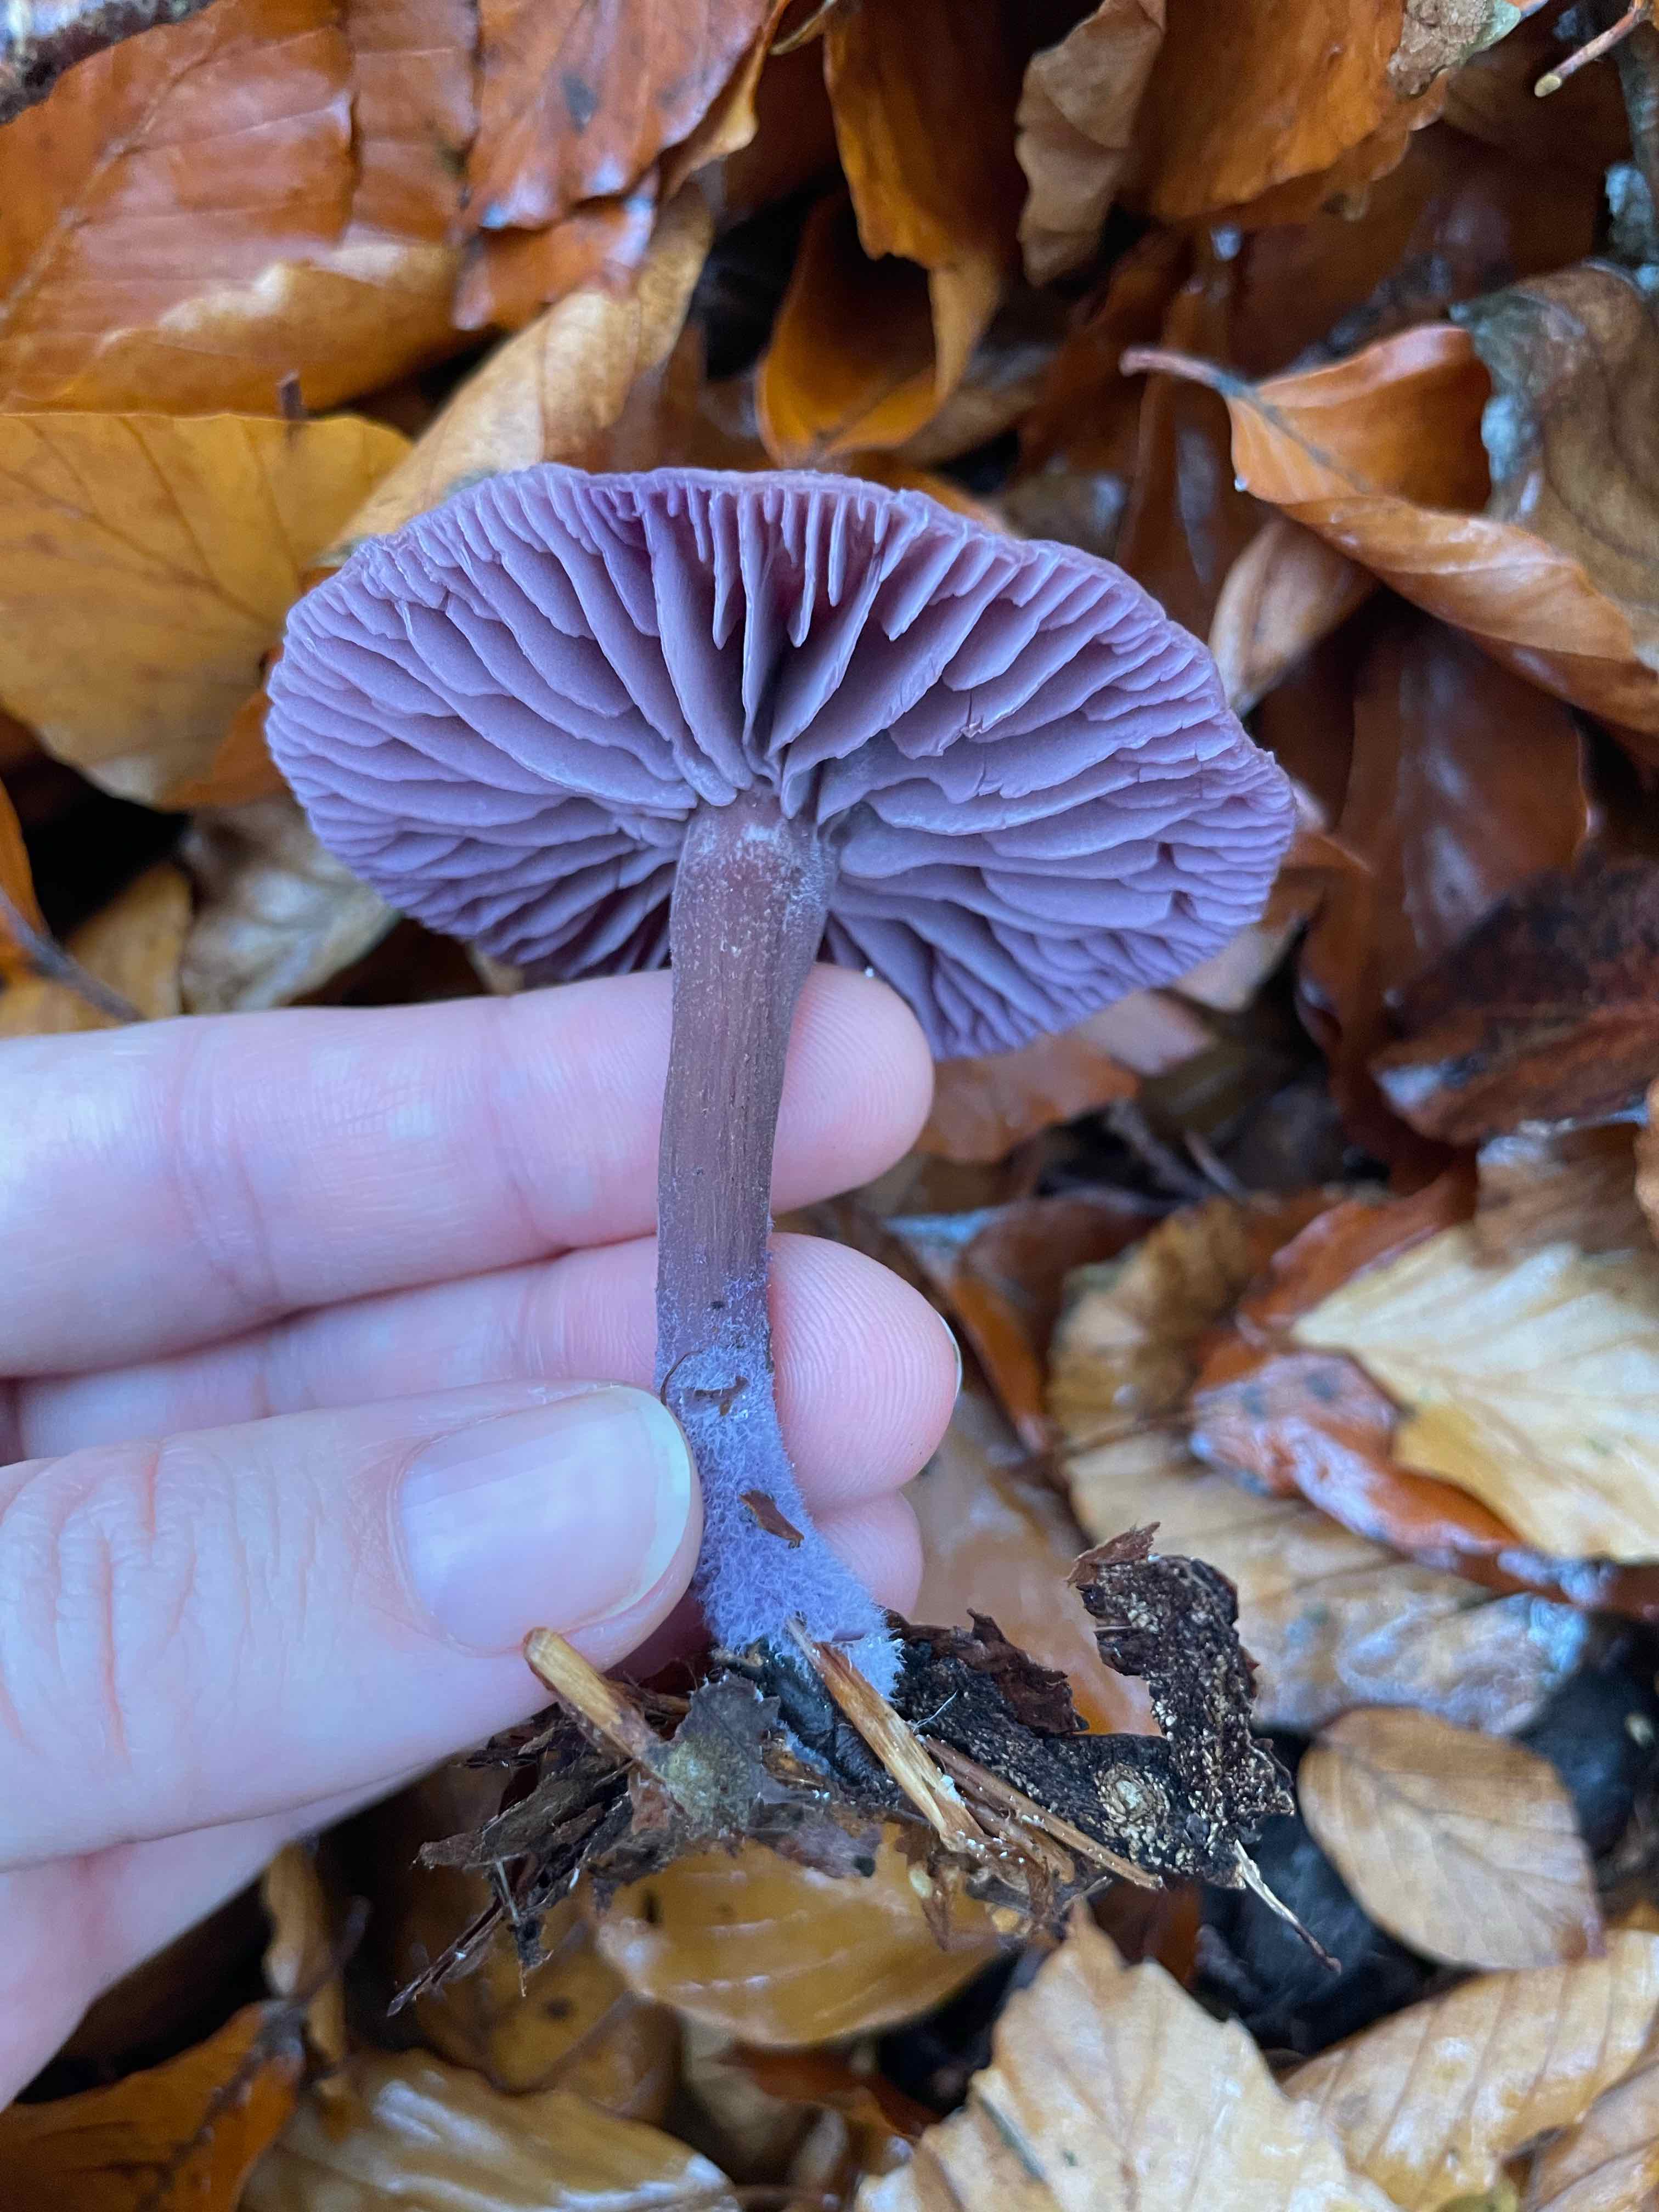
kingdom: Fungi
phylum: Basidiomycota
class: Agaricomycetes
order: Agaricales
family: Hydnangiaceae
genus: Laccaria
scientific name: Laccaria amethystina
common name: violet ametysthat
